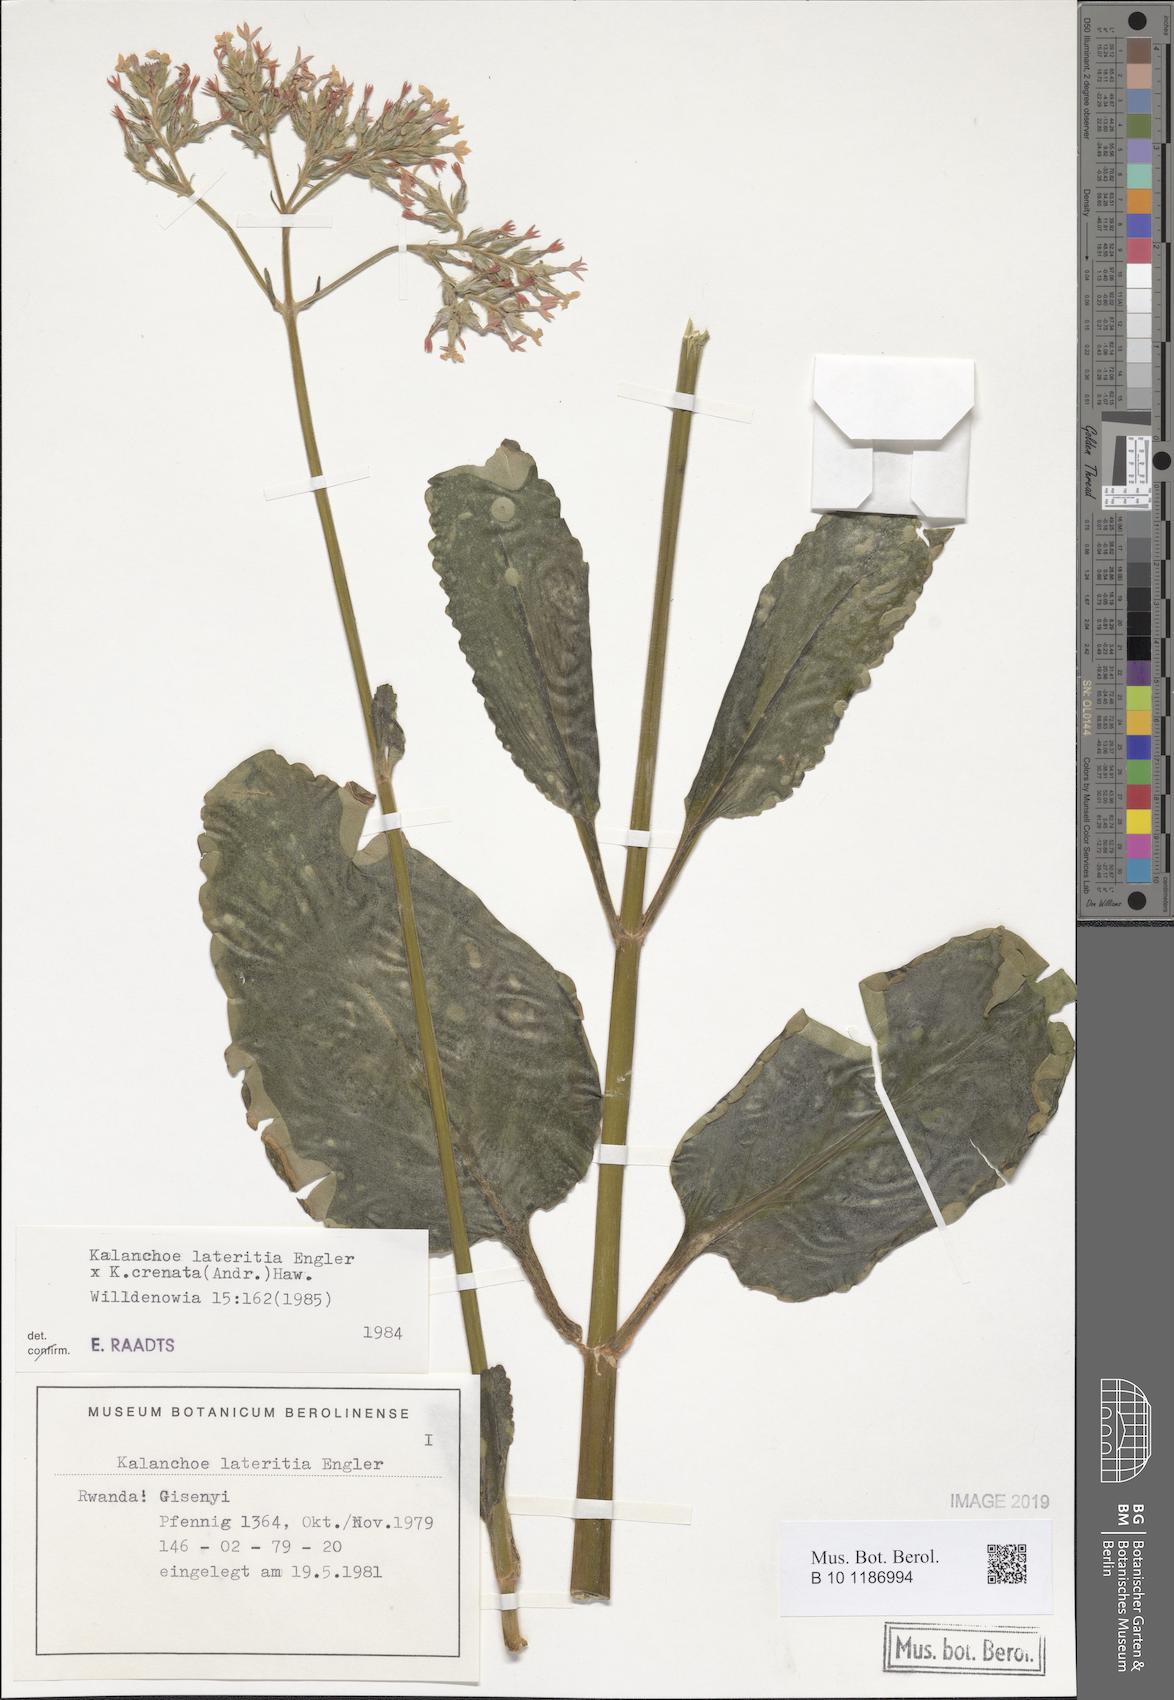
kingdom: Plantae
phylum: Tracheophyta
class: Magnoliopsida
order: Saxifragales
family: Crassulaceae
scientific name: Crassulaceae
